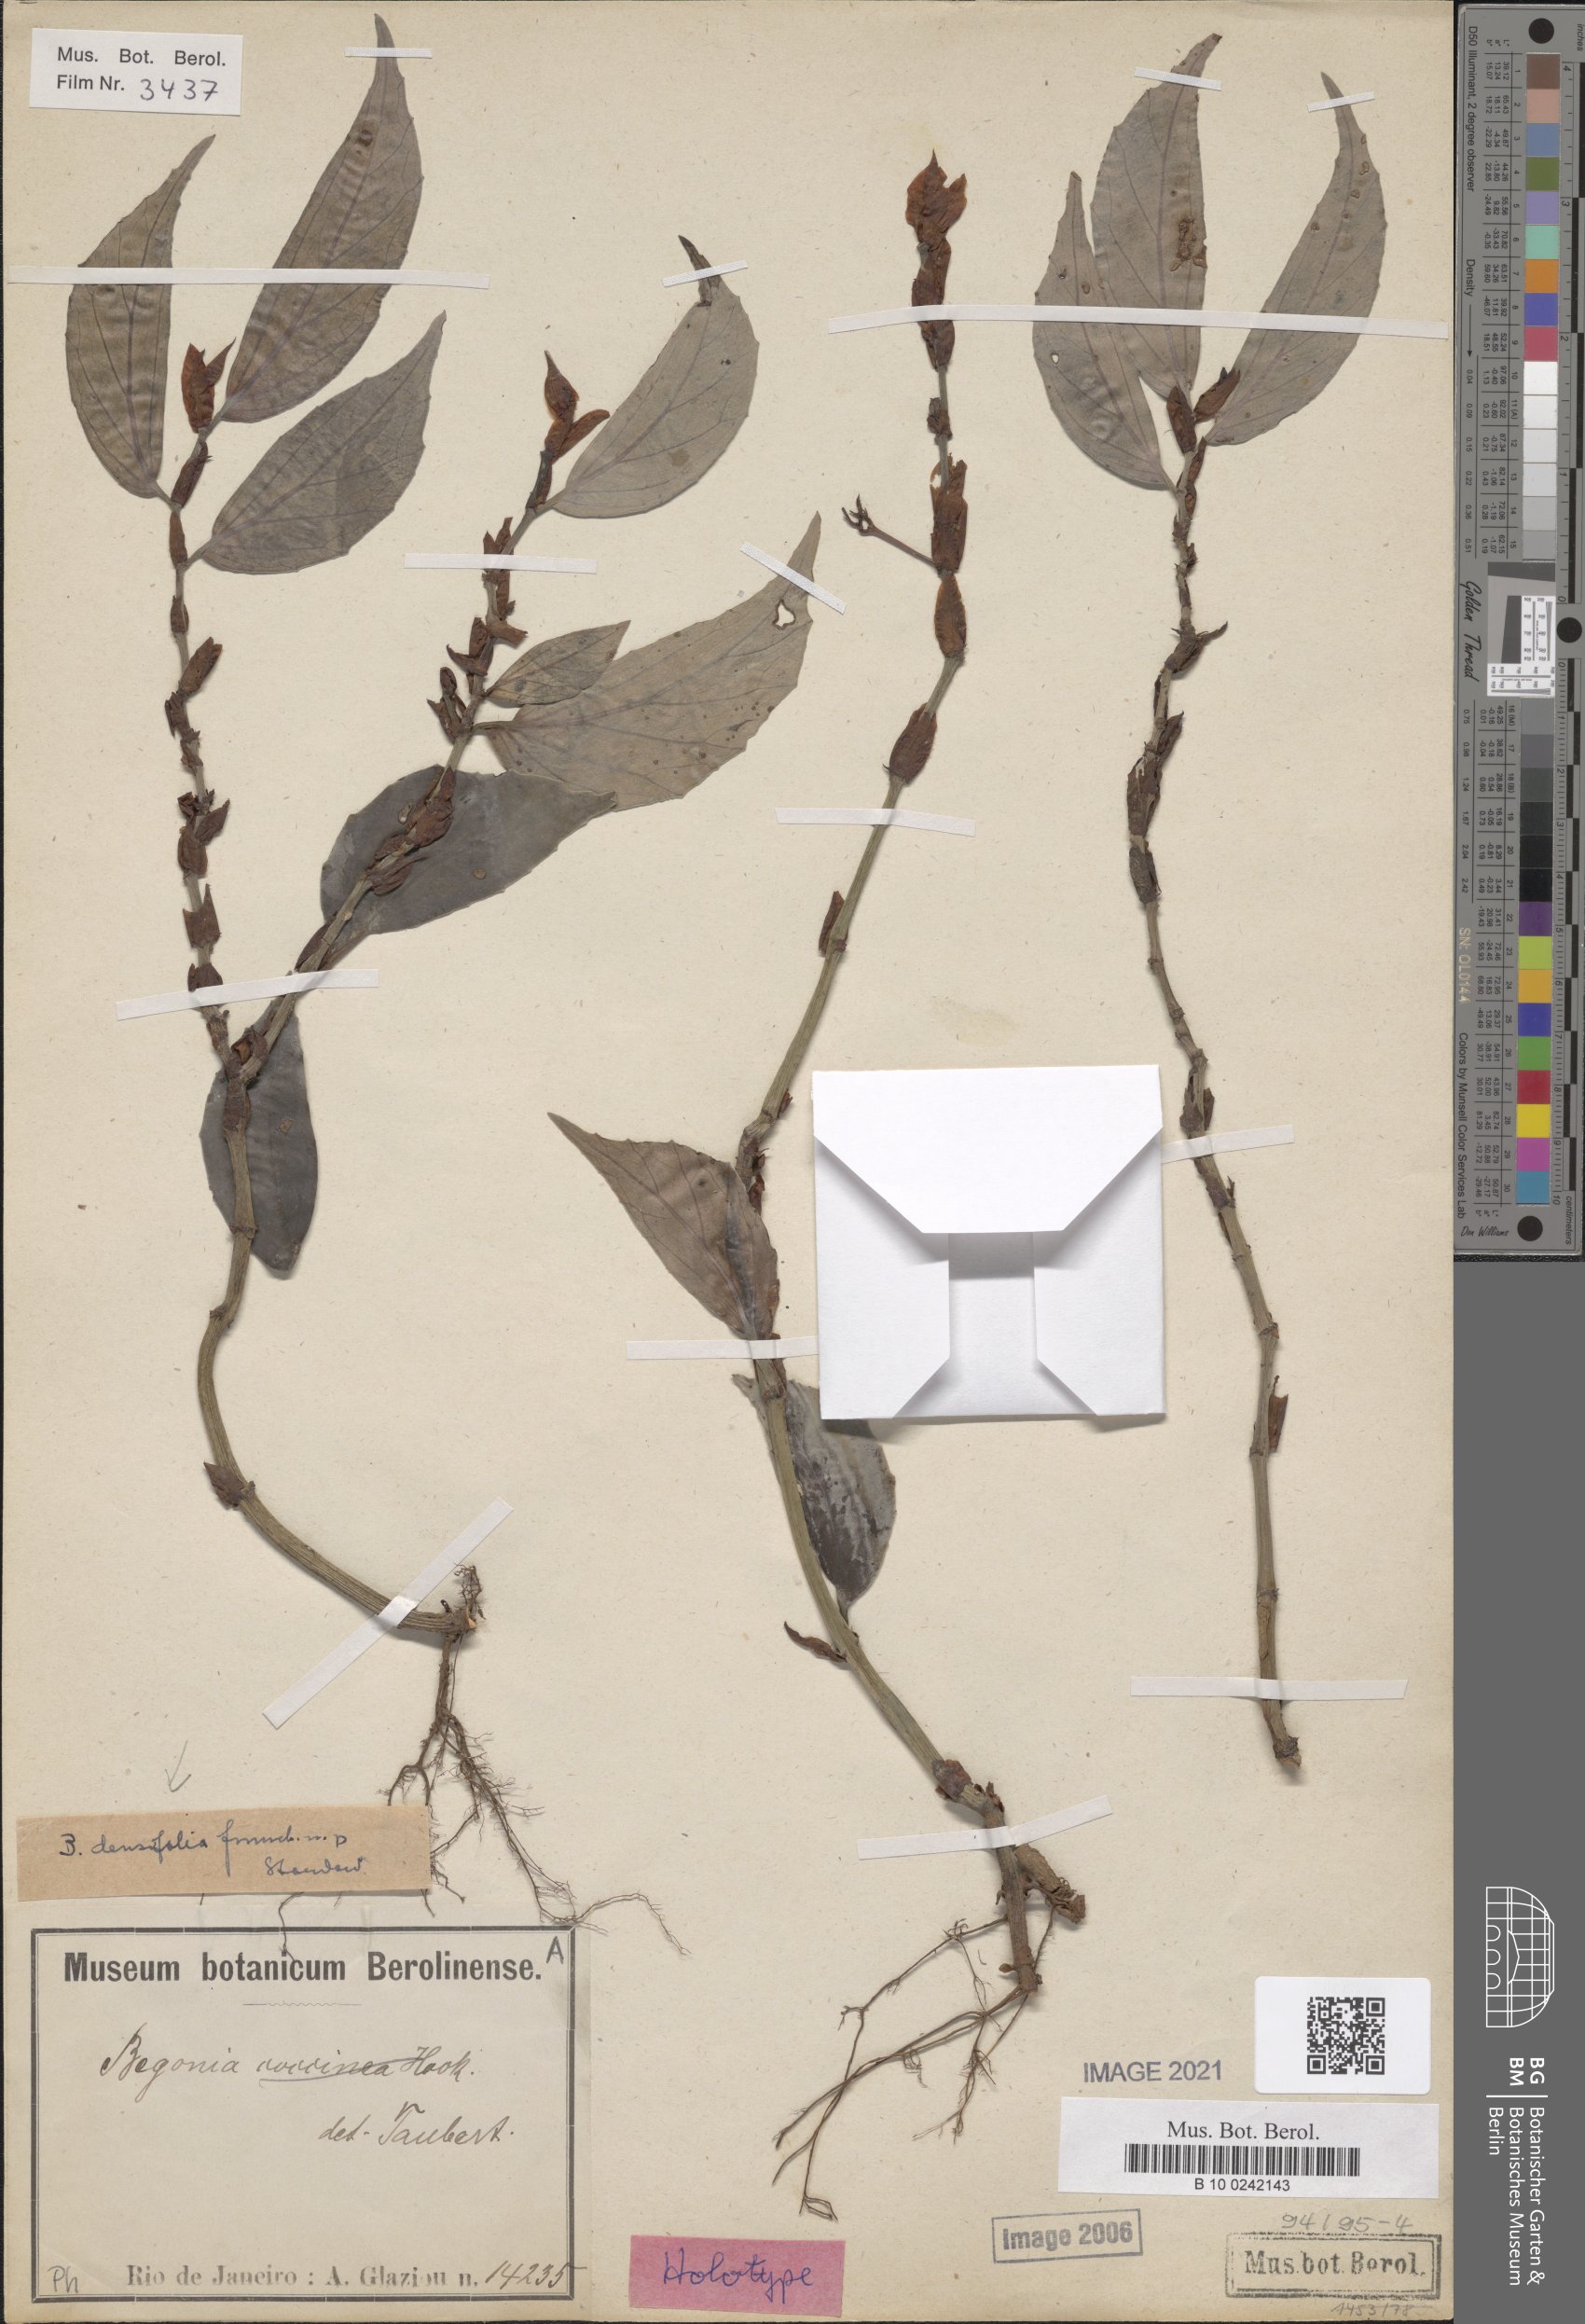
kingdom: Plantae
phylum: Tracheophyta
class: Magnoliopsida
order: Cucurbitales
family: Begoniaceae
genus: Begonia
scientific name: Begonia densifolia
